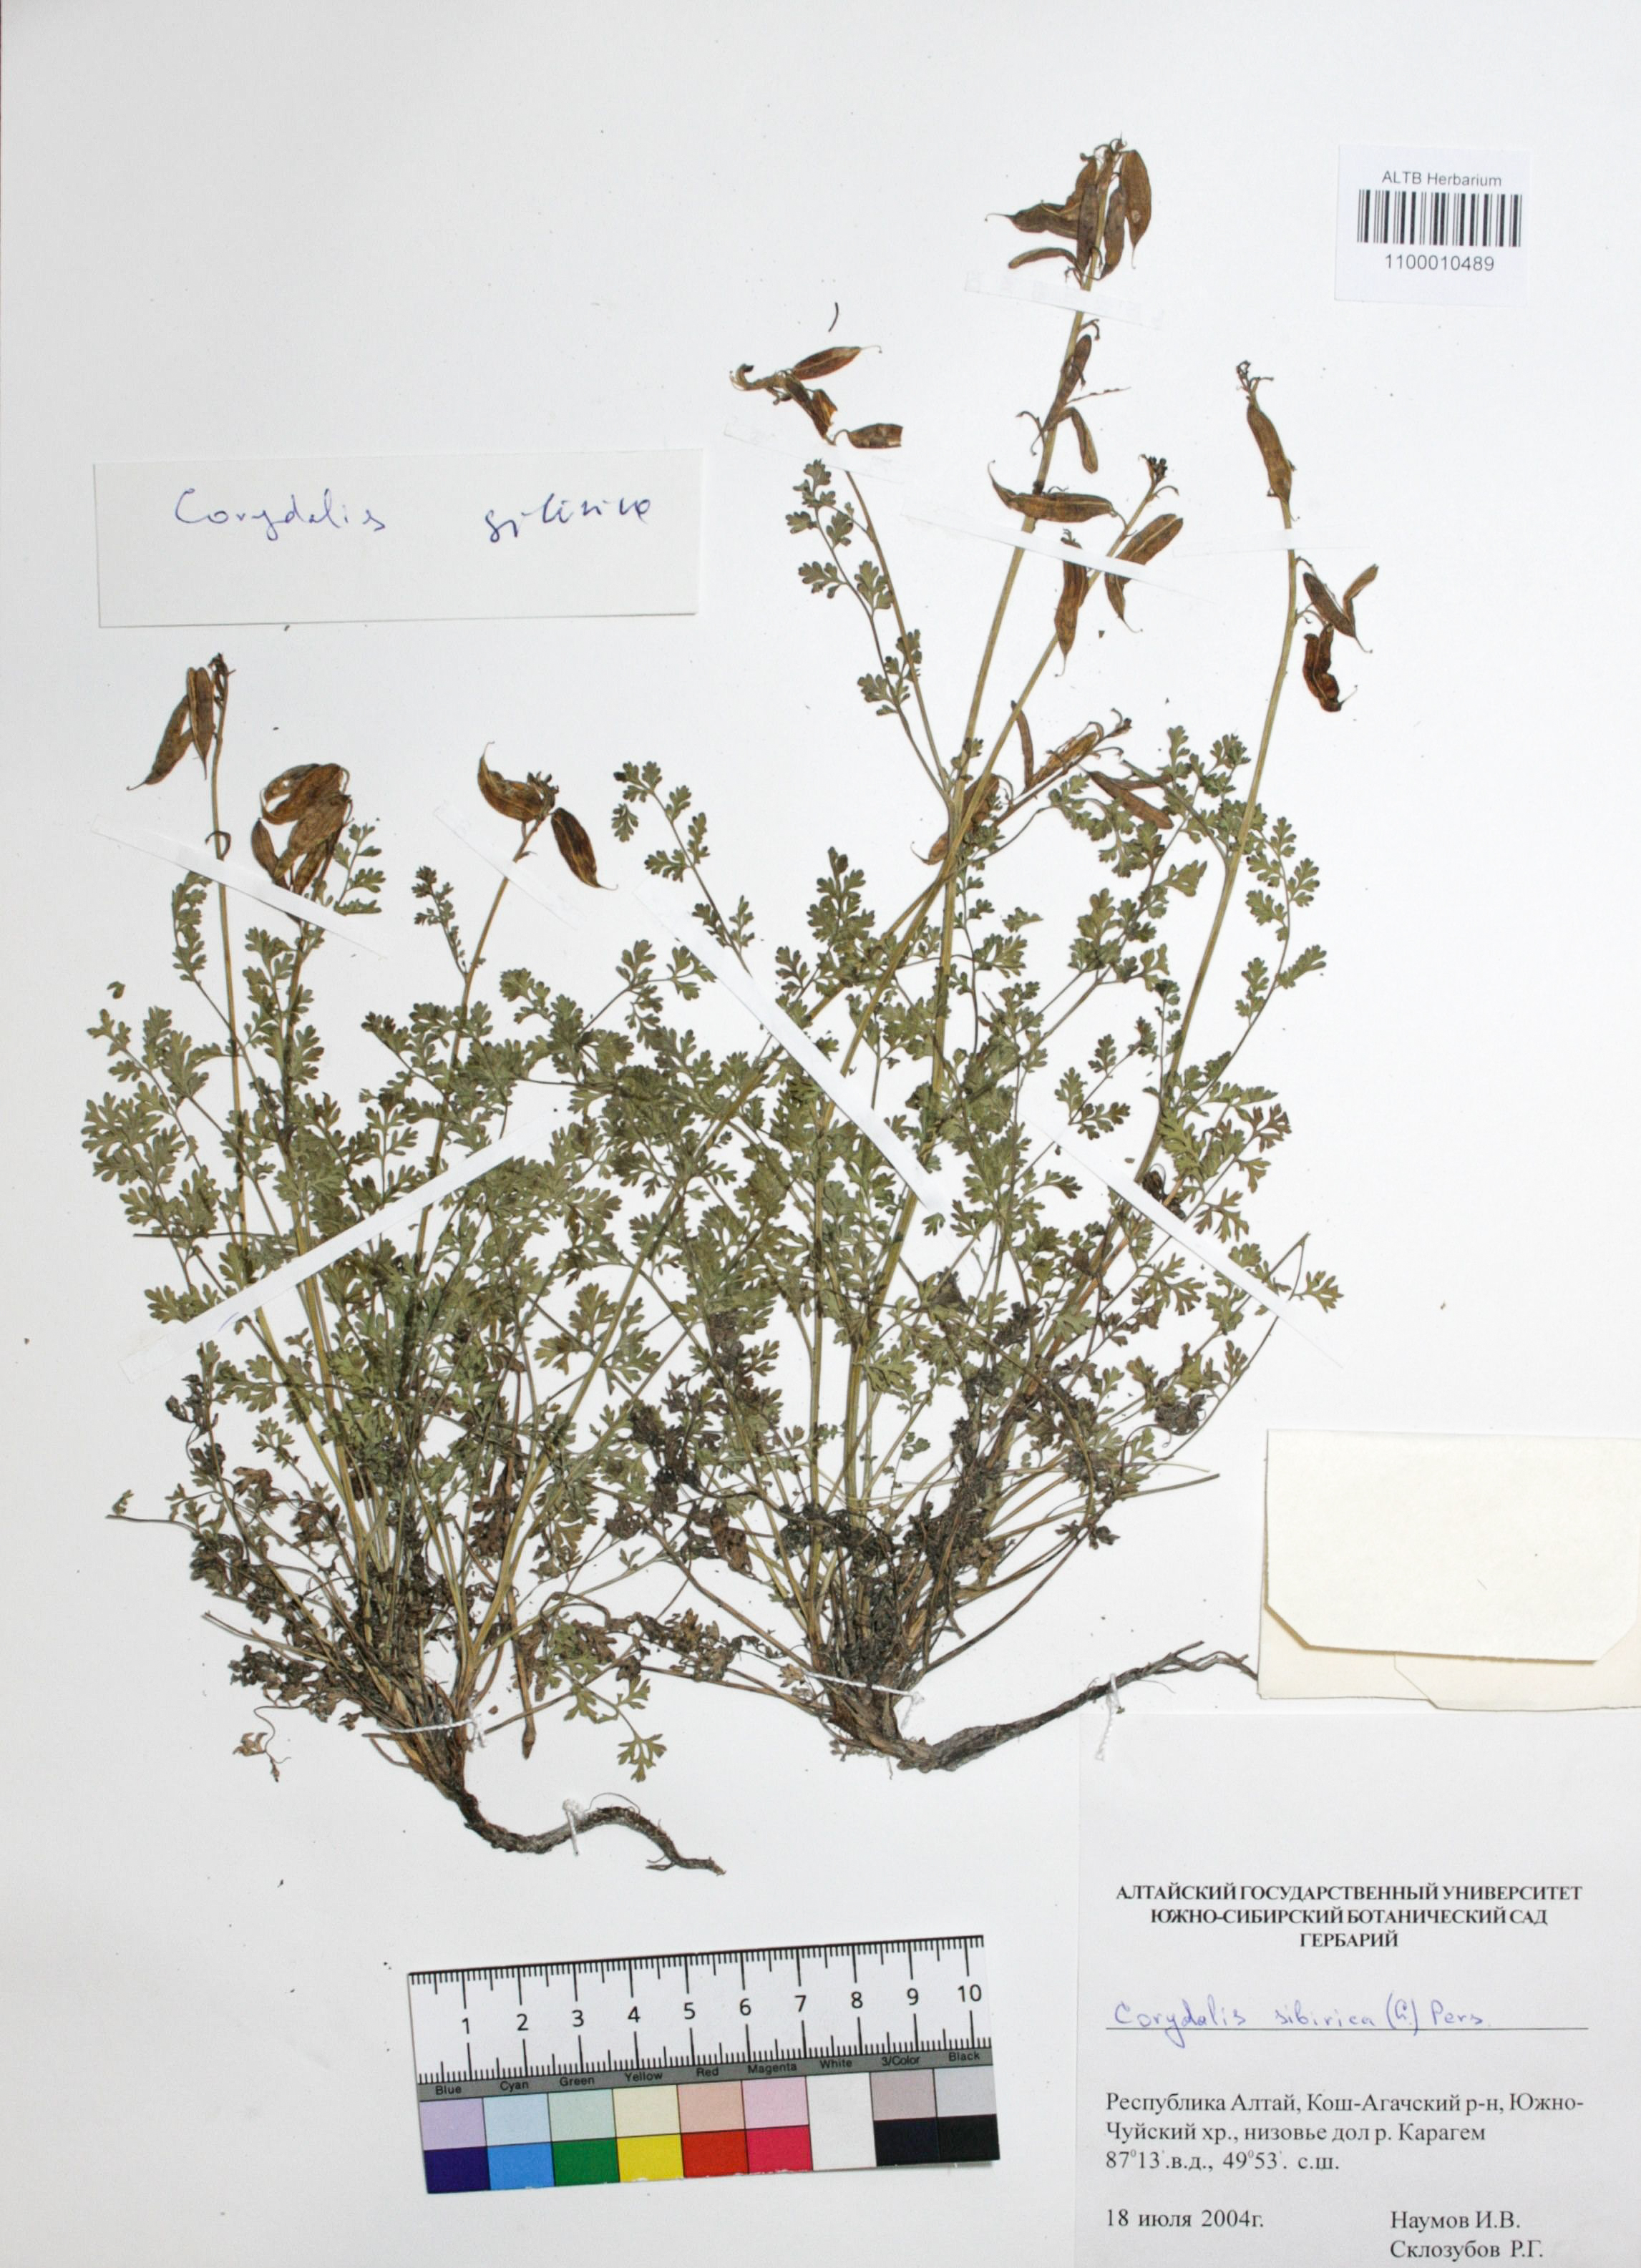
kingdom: Plantae
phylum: Tracheophyta
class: Magnoliopsida
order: Ranunculales
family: Papaveraceae
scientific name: Papaveraceae
